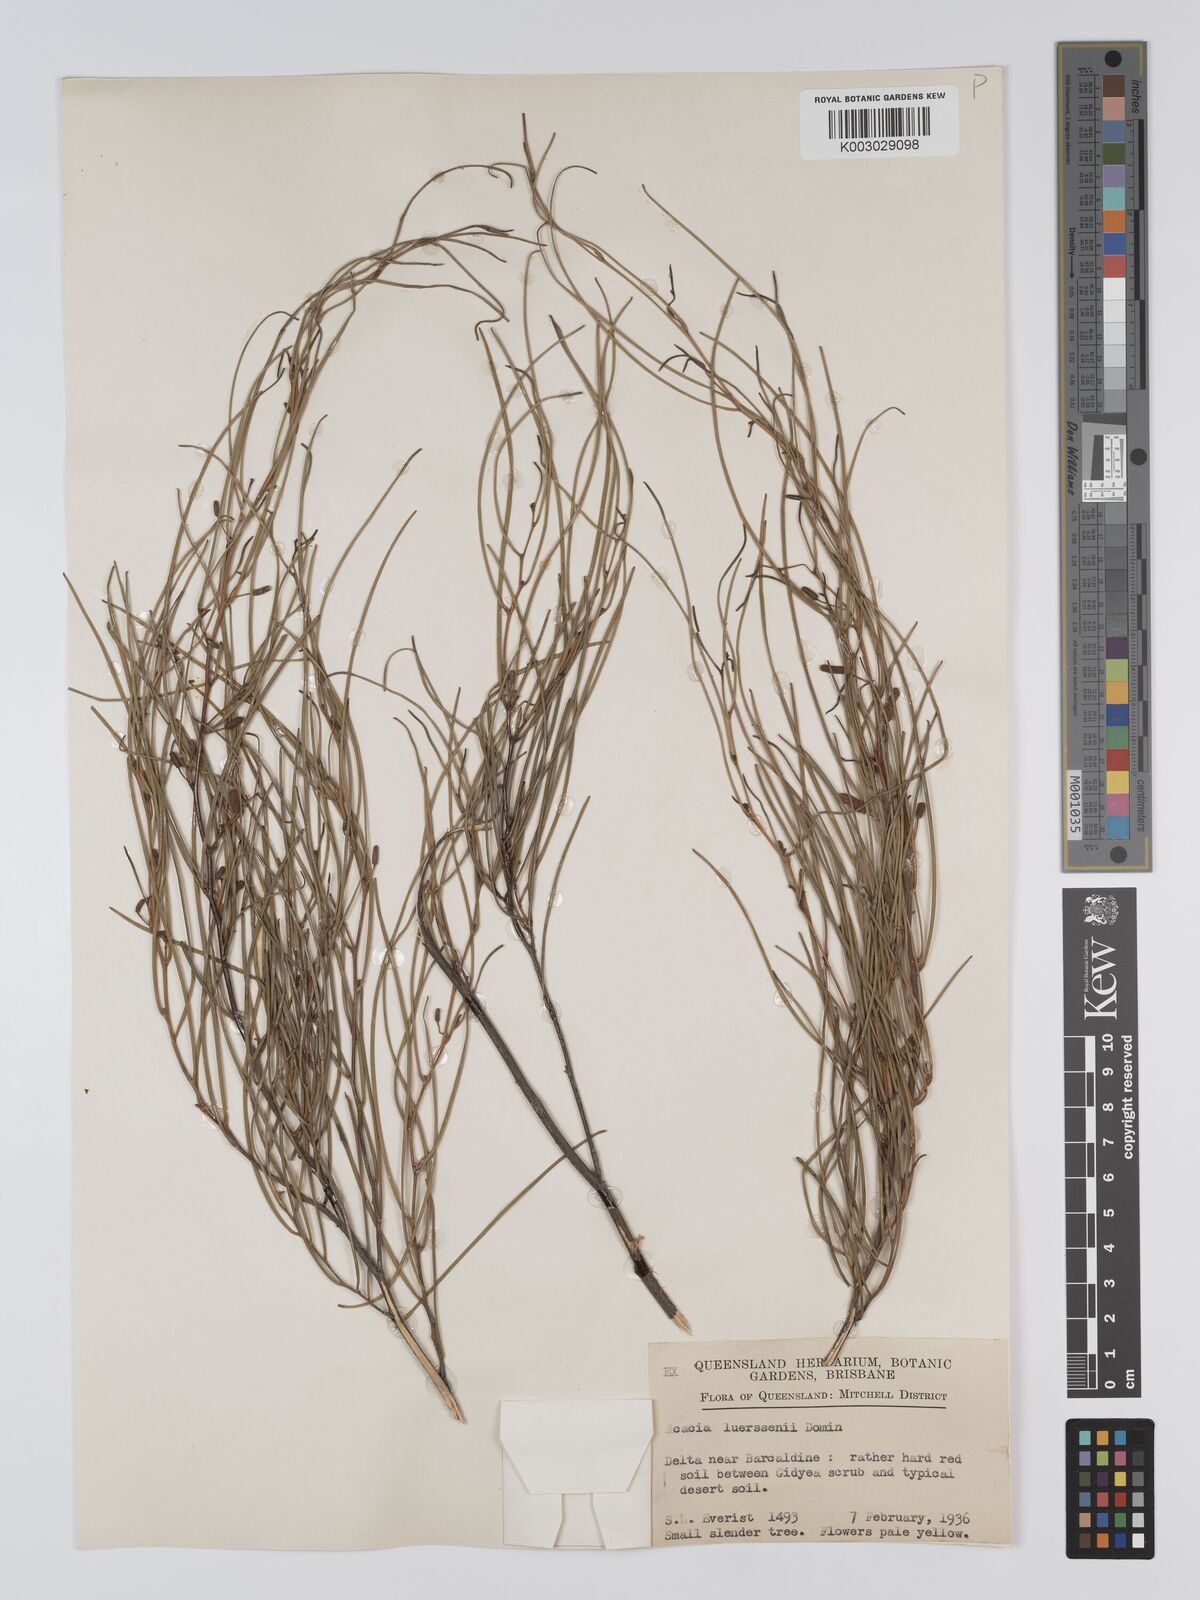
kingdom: Plantae
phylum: Tracheophyta
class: Magnoliopsida
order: Fabales
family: Fabaceae
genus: Acacia
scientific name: Acacia tenuissima
